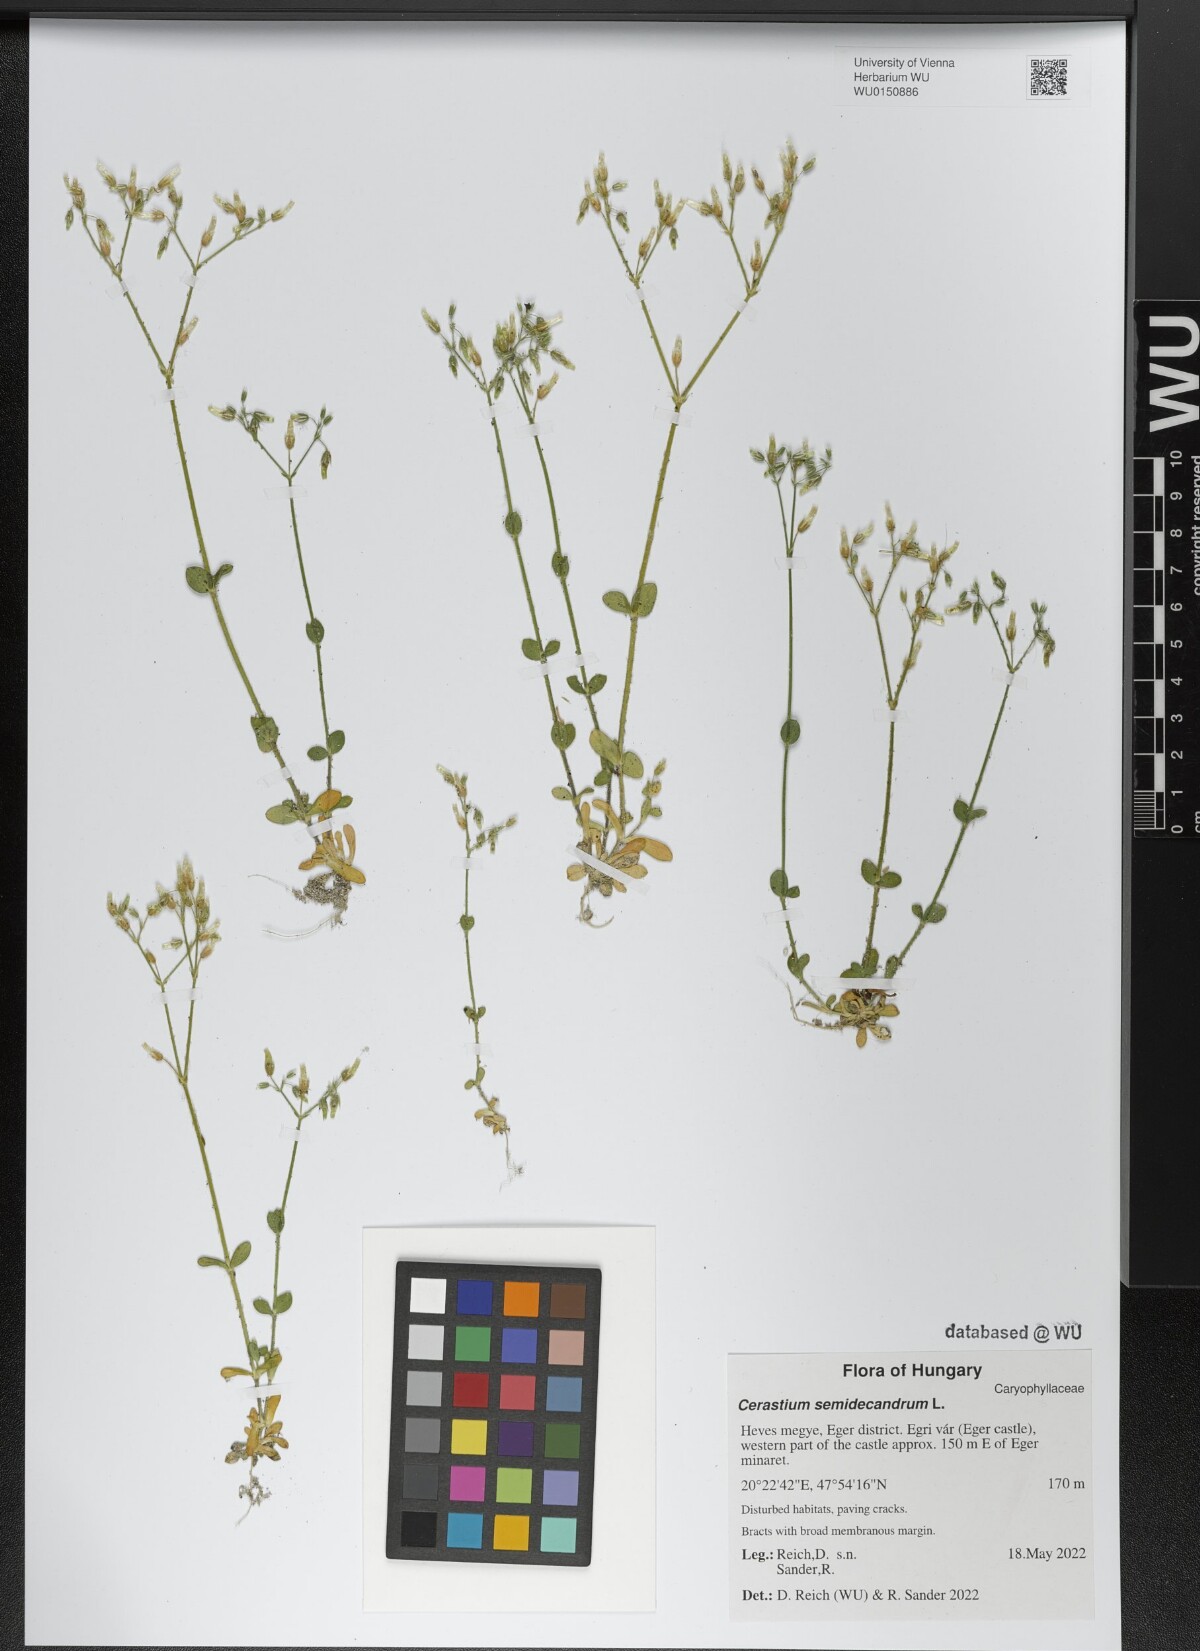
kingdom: Plantae
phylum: Tracheophyta
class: Magnoliopsida
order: Caryophyllales
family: Caryophyllaceae
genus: Cerastium
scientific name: Cerastium semidecandrum
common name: Little mouse-ear
